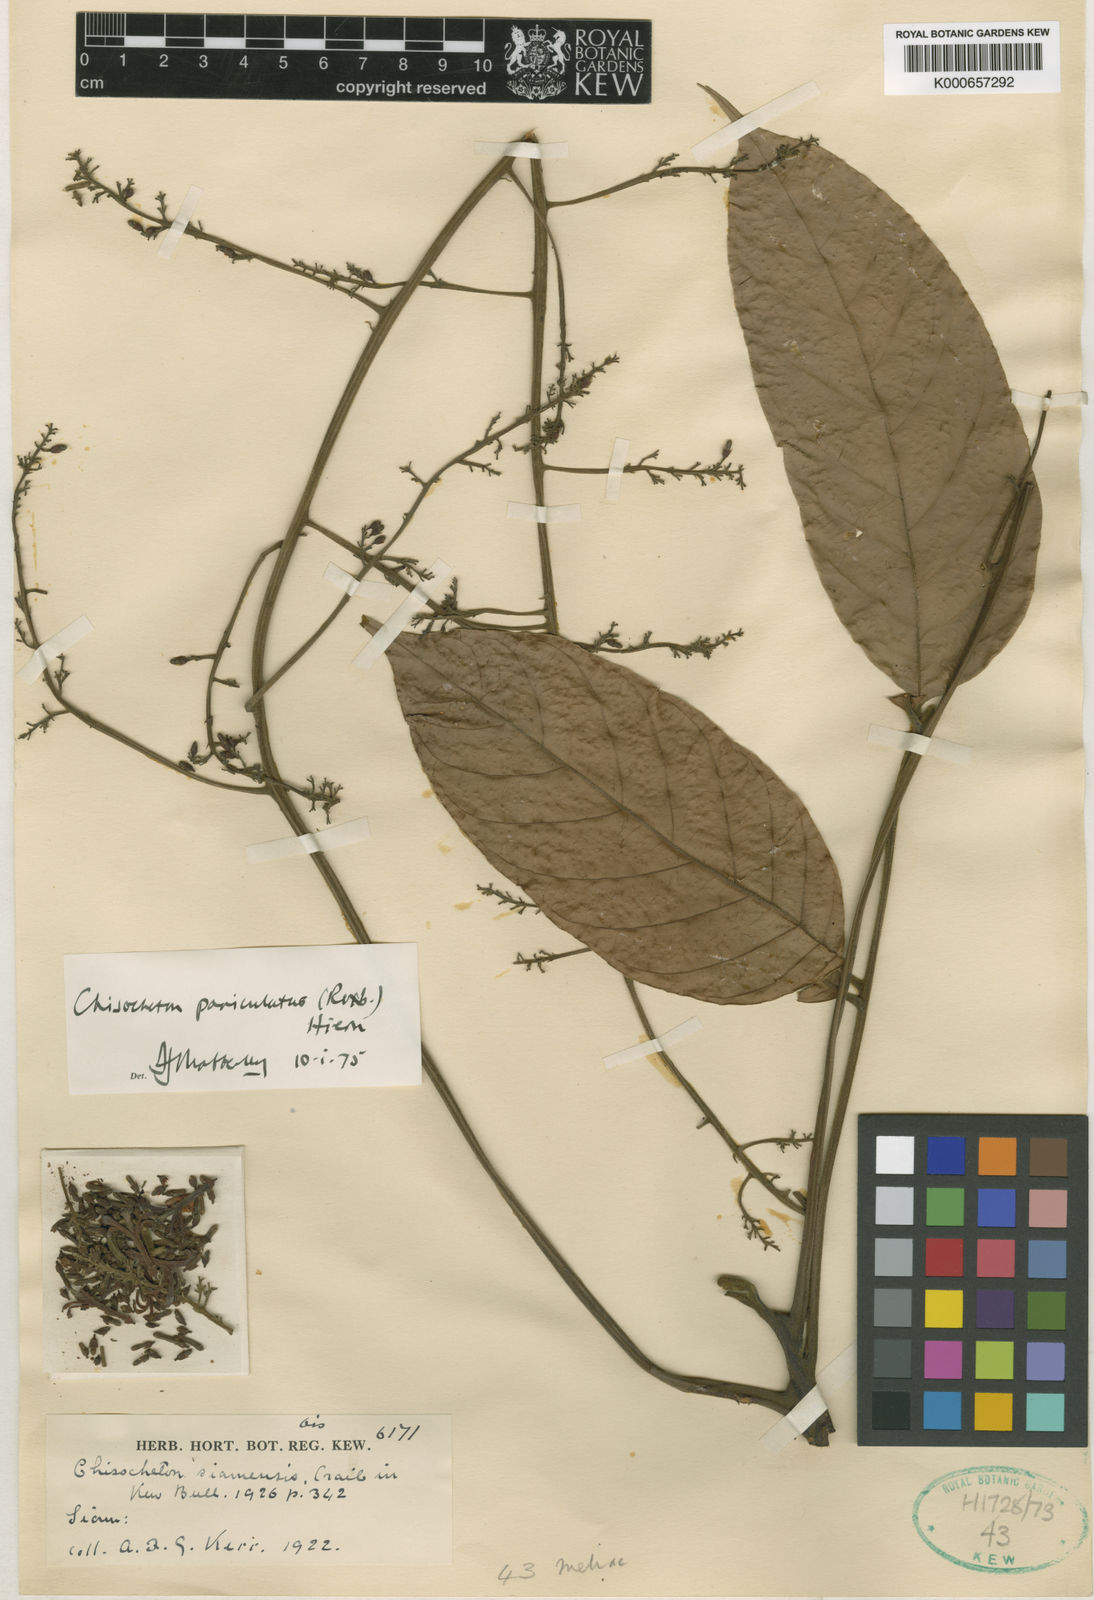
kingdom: Plantae
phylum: Tracheophyta
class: Magnoliopsida
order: Sapindales
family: Meliaceae
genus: Chisocheton
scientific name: Chisocheton cumingianus
